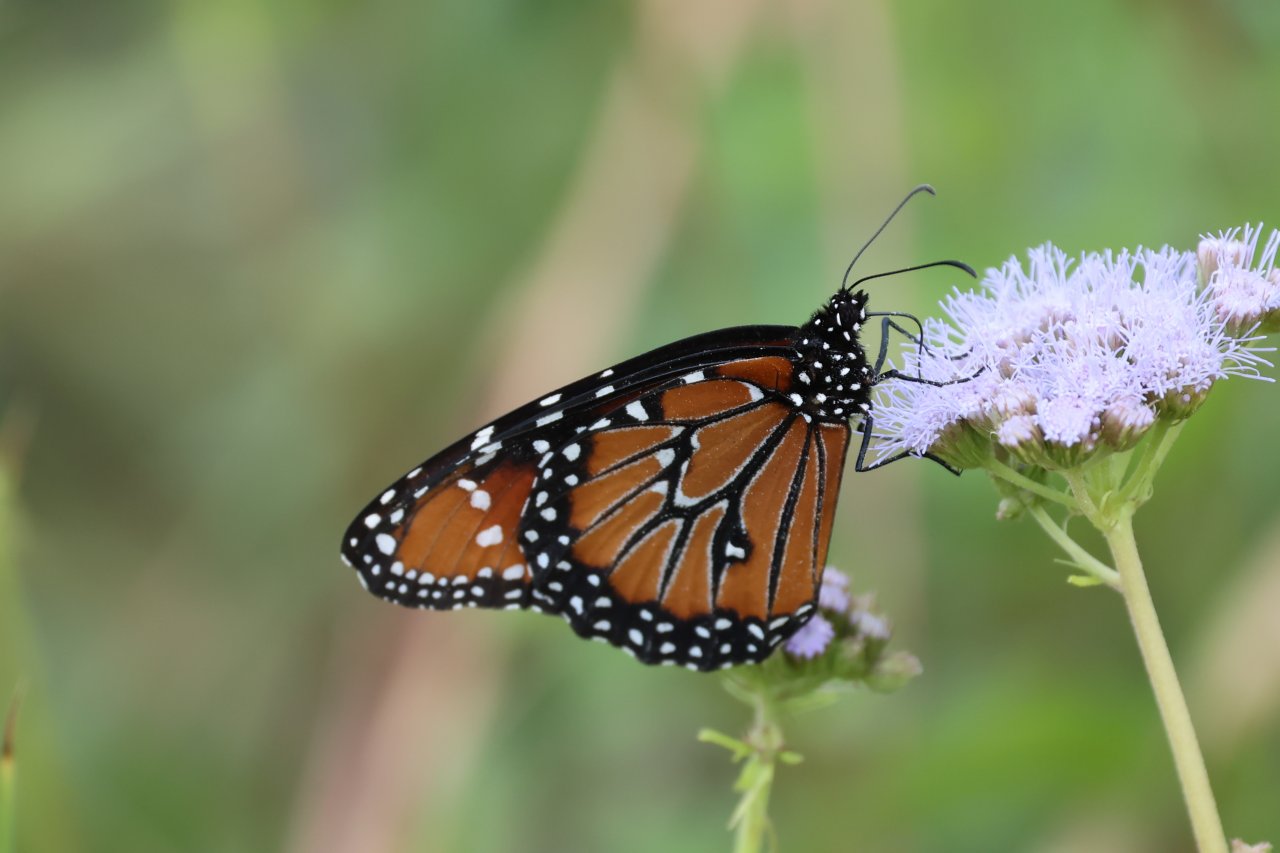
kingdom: Animalia
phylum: Arthropoda
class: Insecta
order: Lepidoptera
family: Nymphalidae
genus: Danaus
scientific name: Danaus gilippus
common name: Queen
